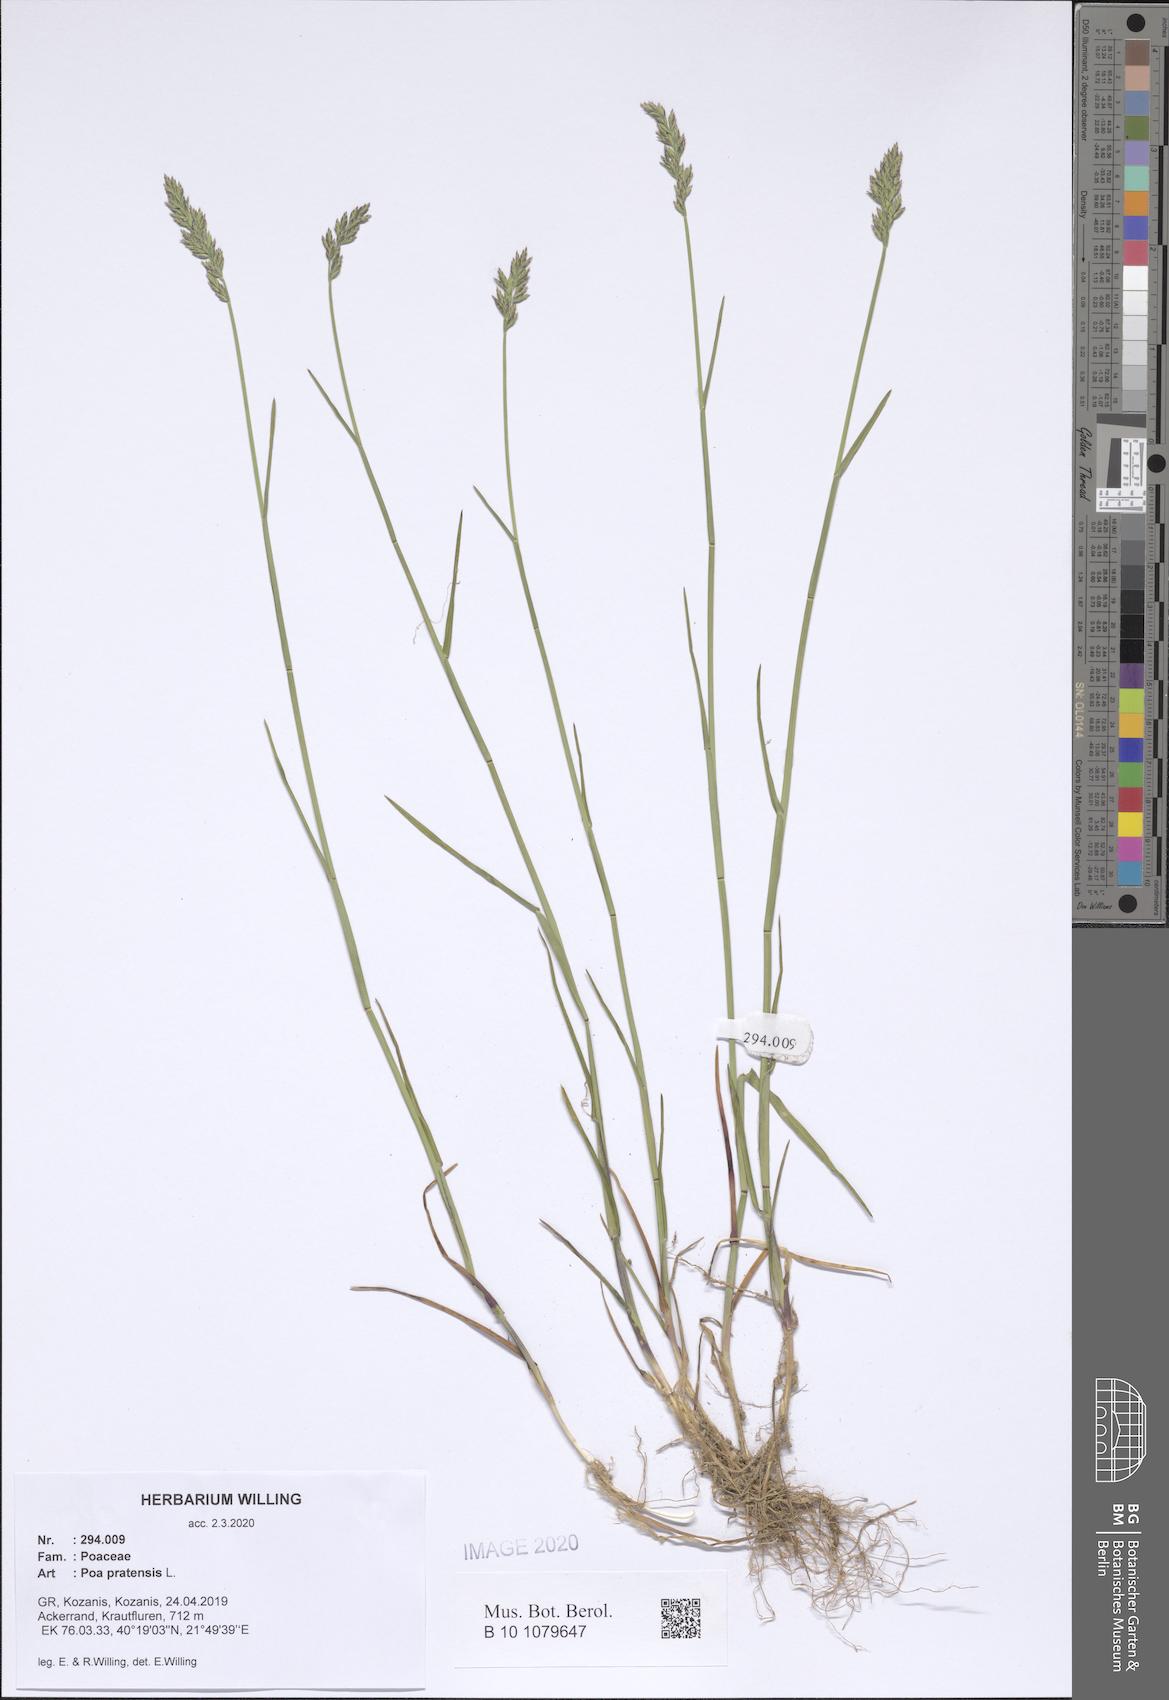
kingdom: Plantae
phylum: Tracheophyta
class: Liliopsida
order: Poales
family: Poaceae
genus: Poa
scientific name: Poa pratensis
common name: Kentucky bluegrass
